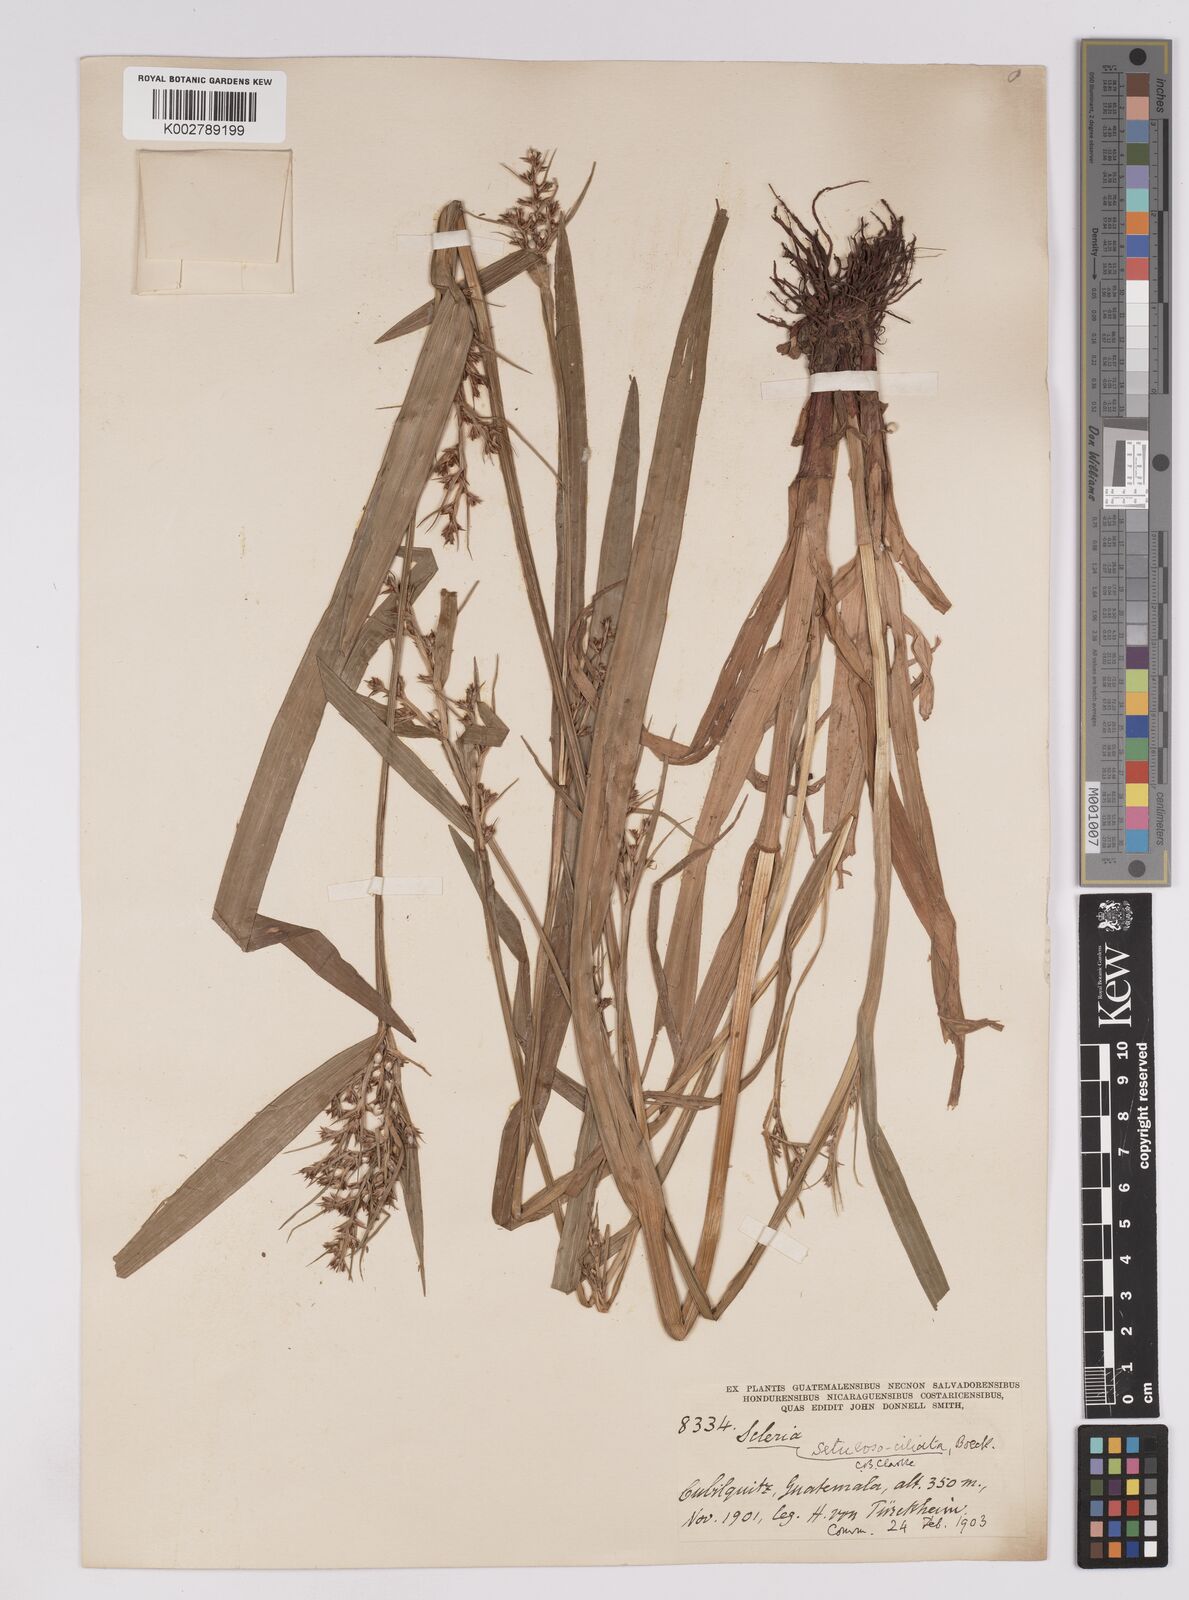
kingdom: Plantae
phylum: Tracheophyta
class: Liliopsida
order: Poales
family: Cyperaceae
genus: Scleria
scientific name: Scleria dregeana
